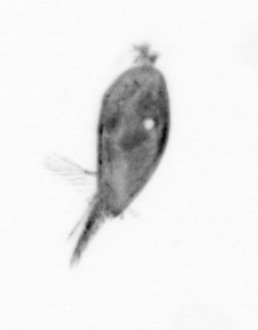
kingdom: Animalia
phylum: Arthropoda
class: Maxillopoda
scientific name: Maxillopoda
